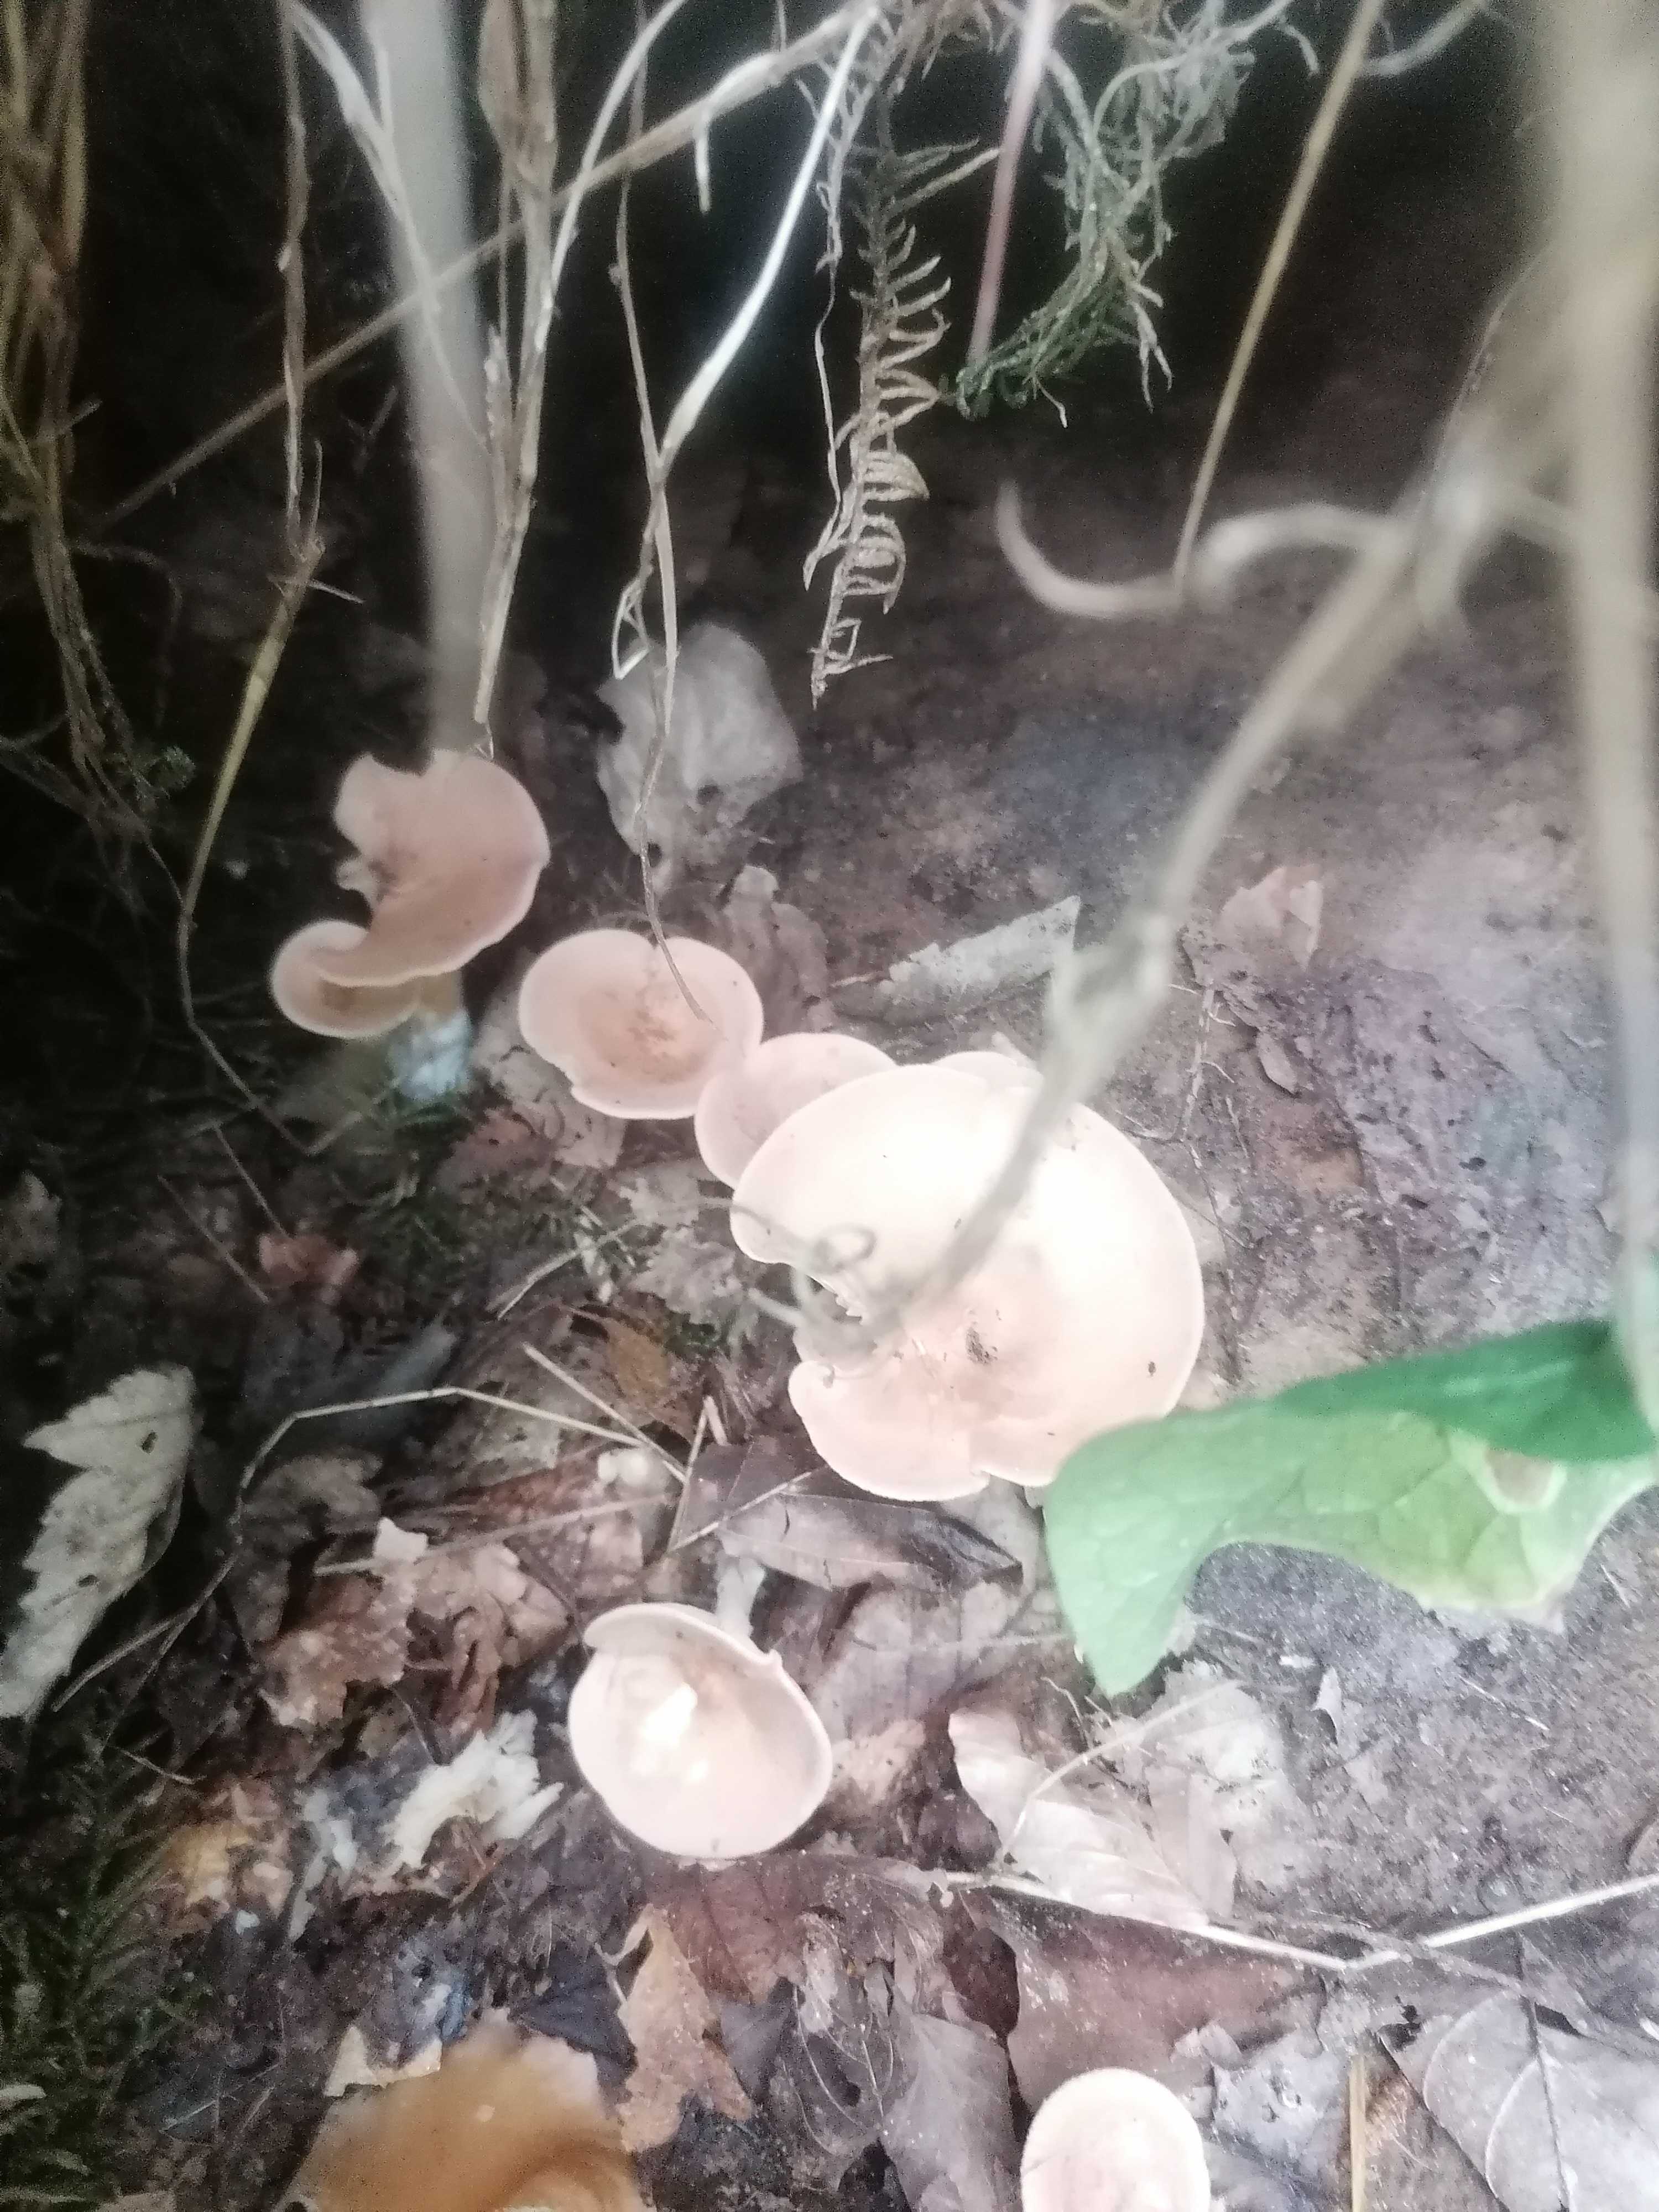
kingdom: Fungi
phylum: Basidiomycota
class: Agaricomycetes
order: Agaricales
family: Tricholomataceae
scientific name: Tricholomataceae
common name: ridderhatfamilien
